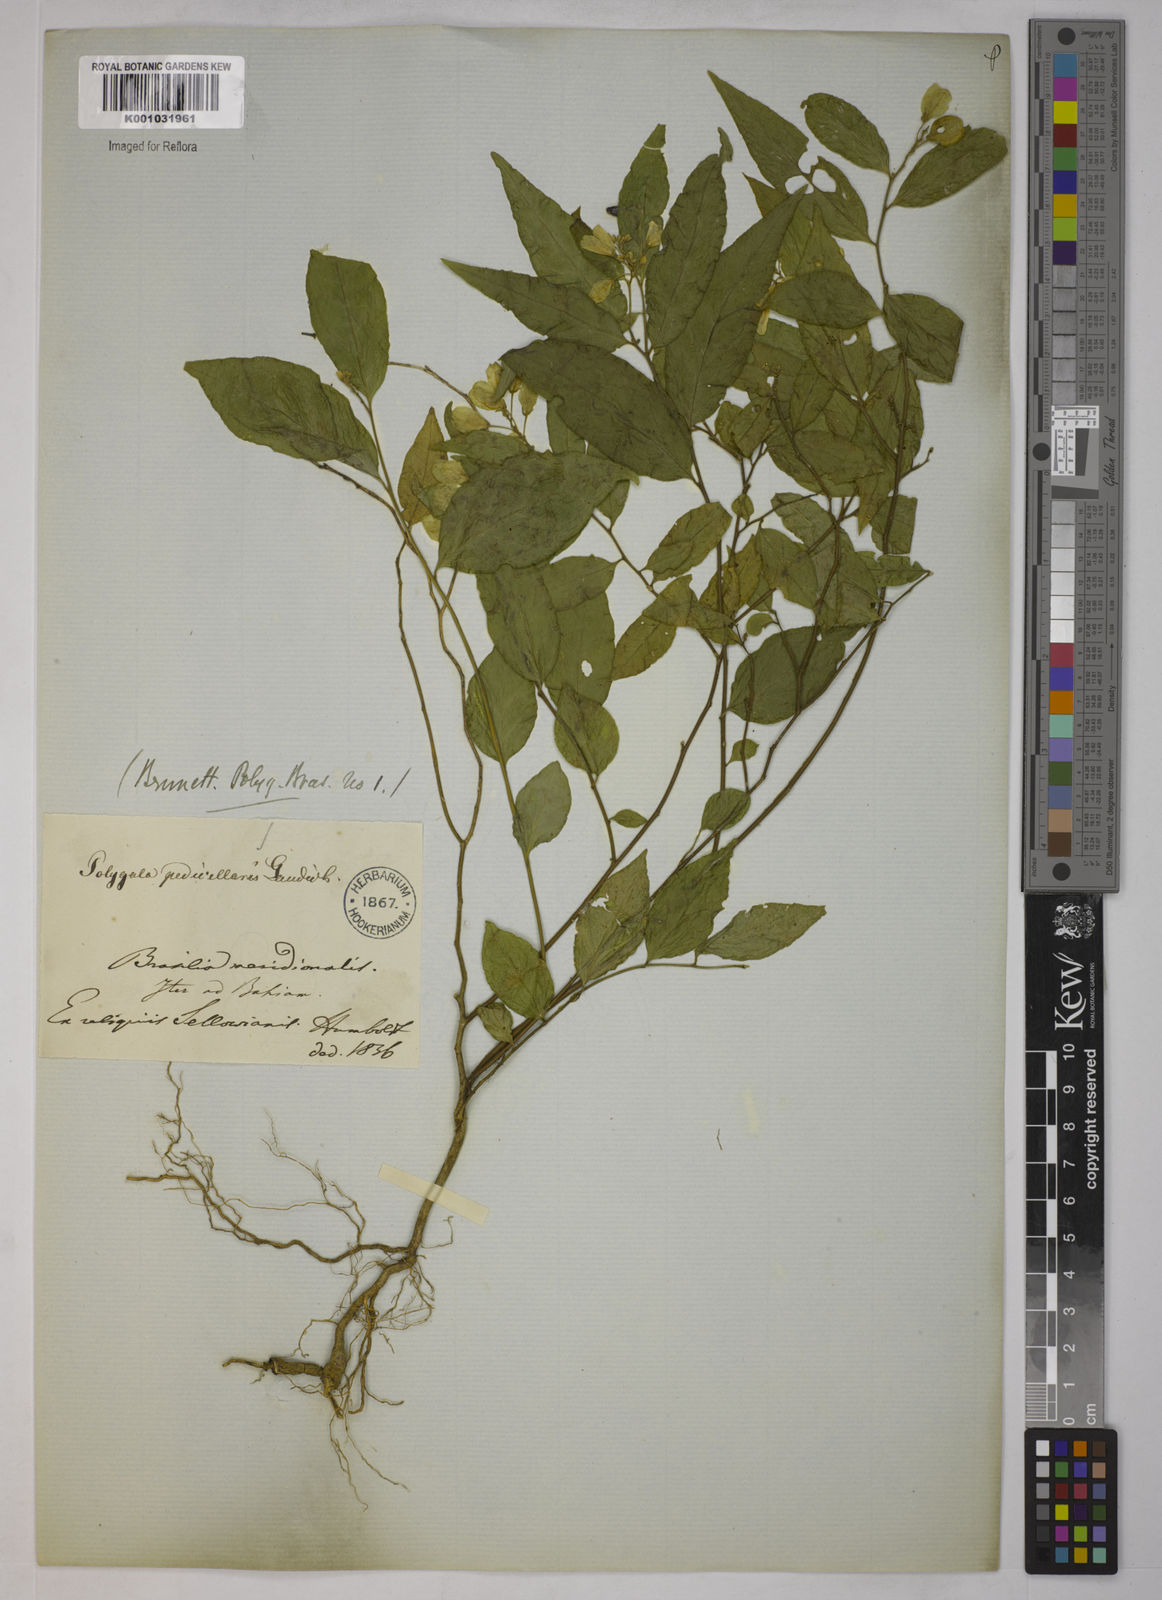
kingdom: Plantae
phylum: Tracheophyta
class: Magnoliopsida
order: Fabales
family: Polygalaceae
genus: Gymnospora
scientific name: Gymnospora blanchetii
